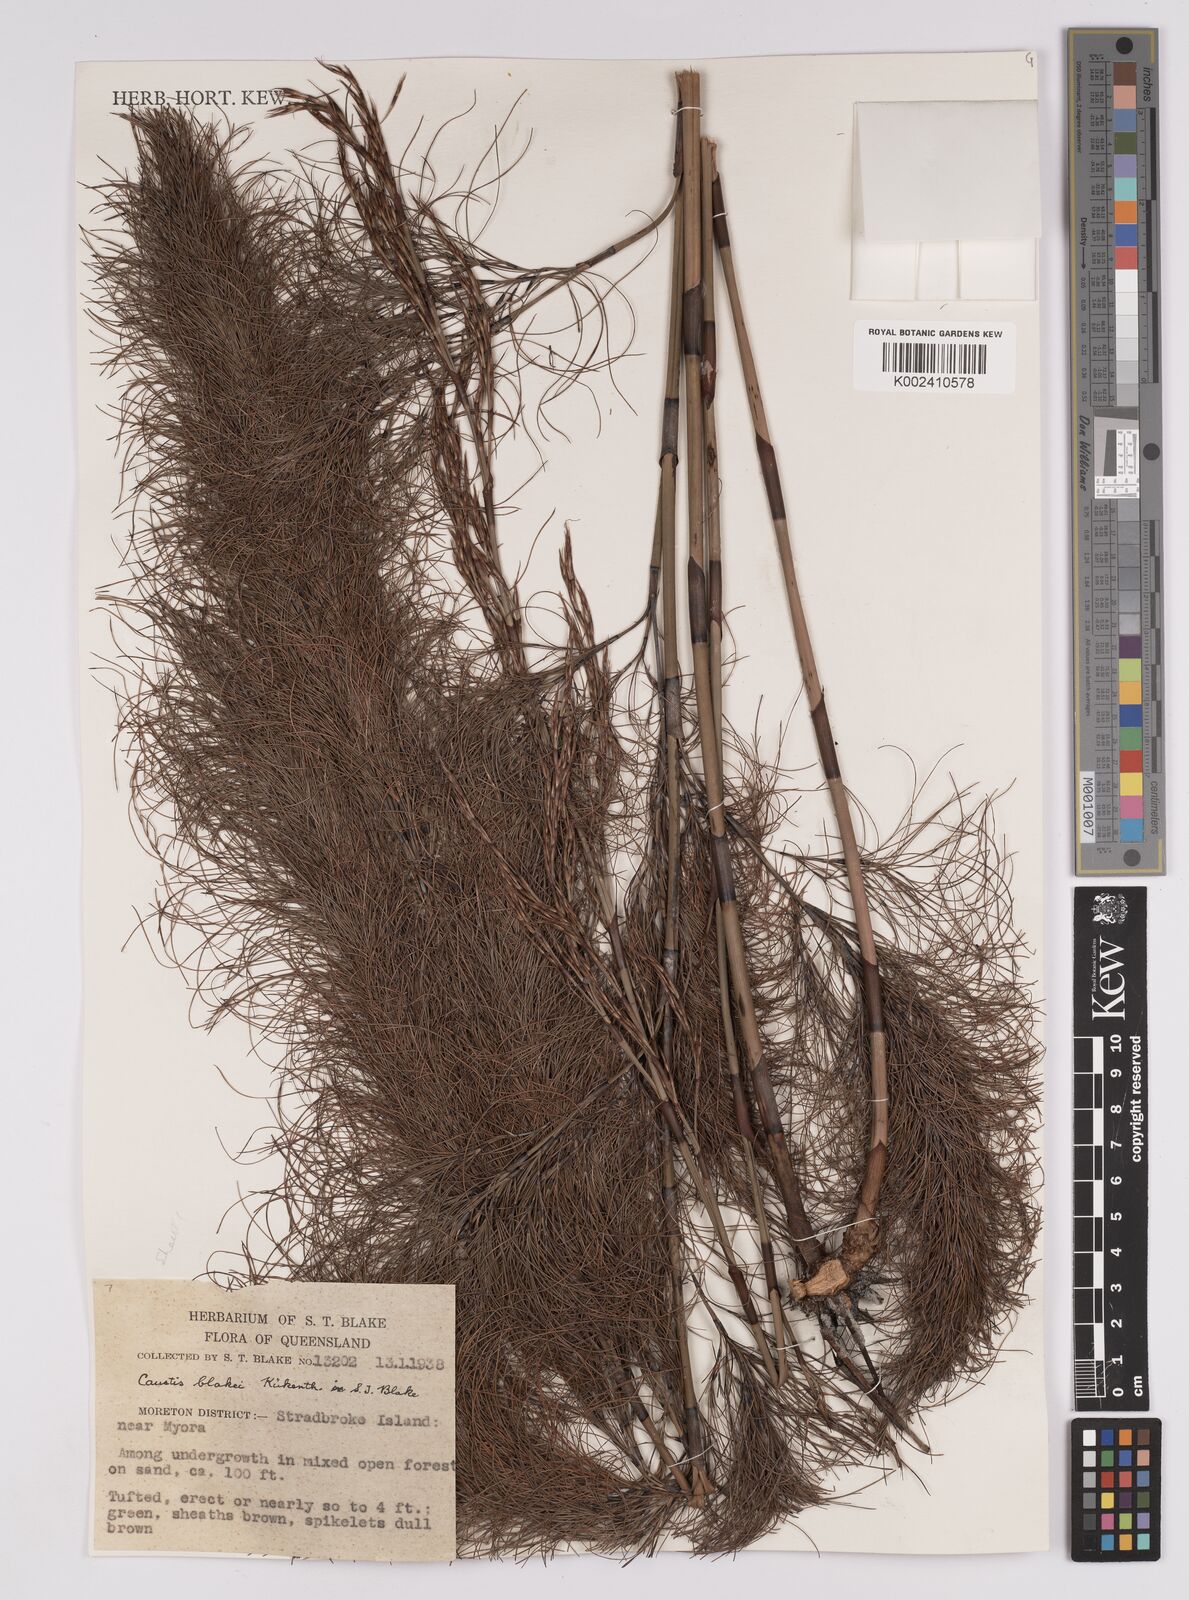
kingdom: Plantae
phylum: Tracheophyta
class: Liliopsida
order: Poales
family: Cyperaceae
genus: Caustis
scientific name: Caustis blakei
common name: Foxtail-fern
